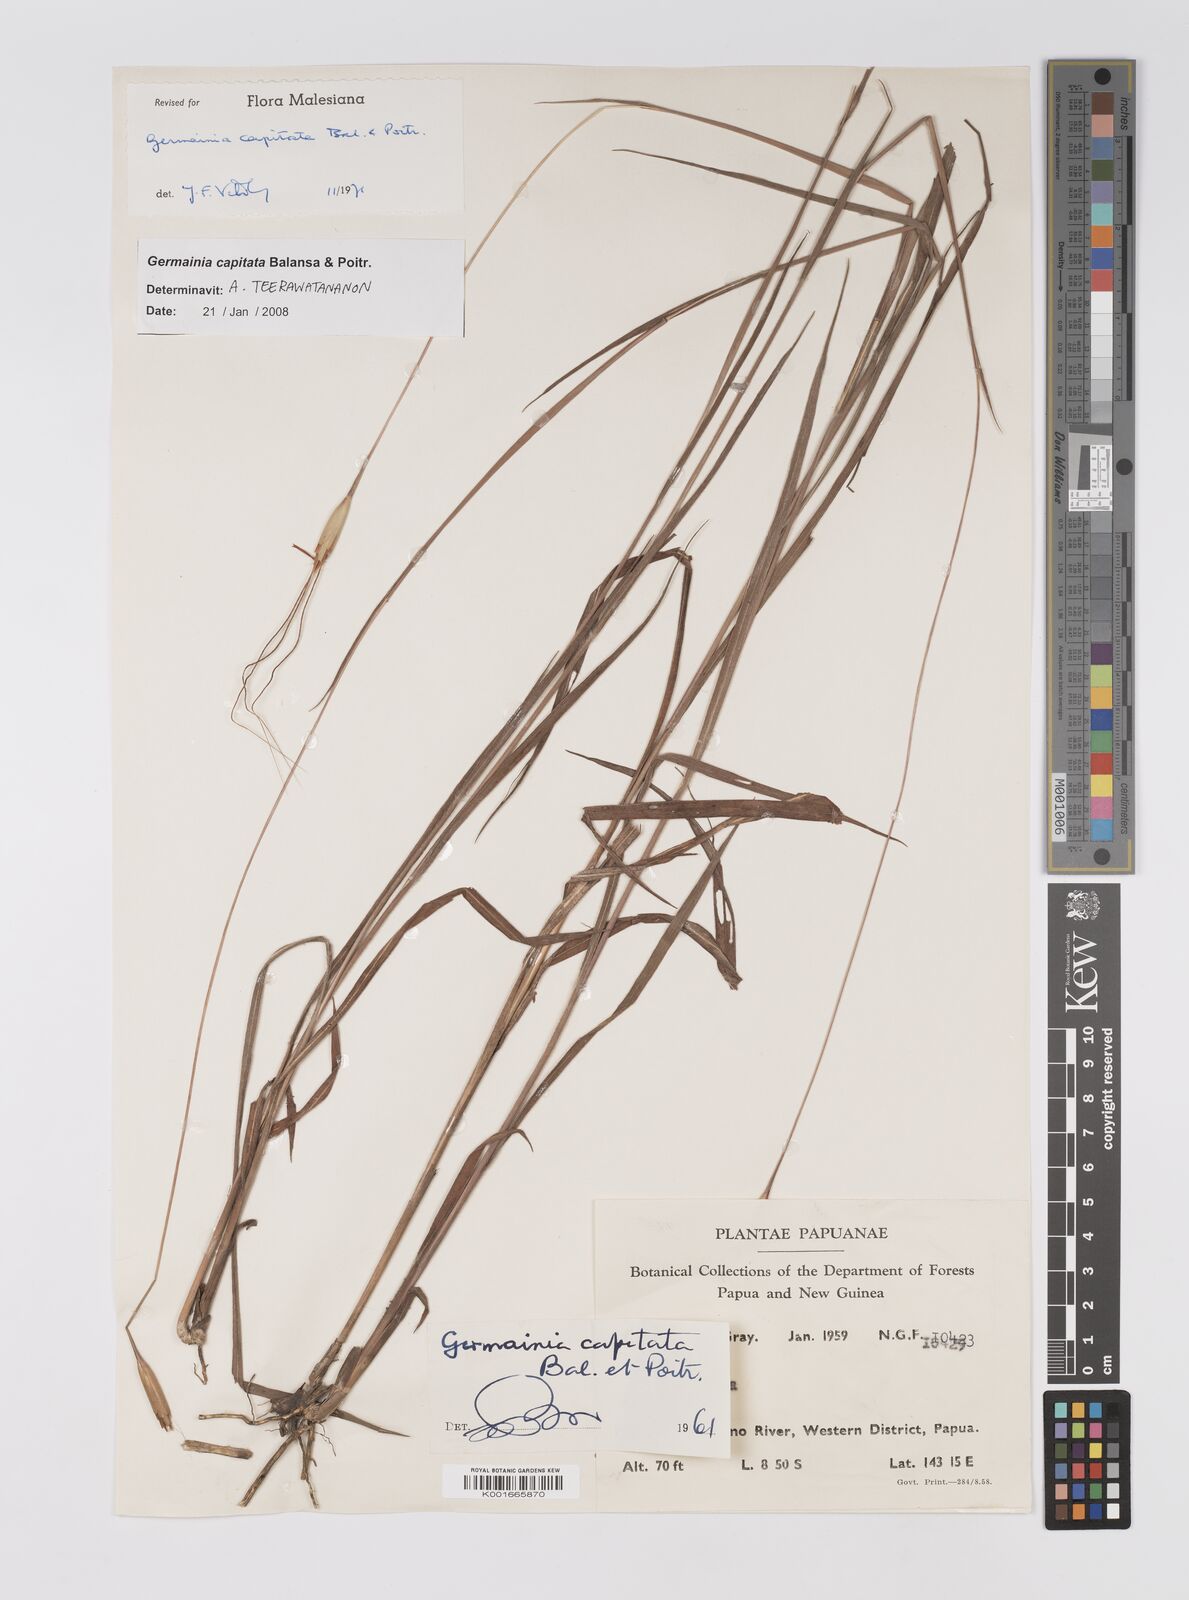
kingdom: Plantae
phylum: Tracheophyta
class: Liliopsida
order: Poales
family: Poaceae
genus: Germainia
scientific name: Germainia capitata
